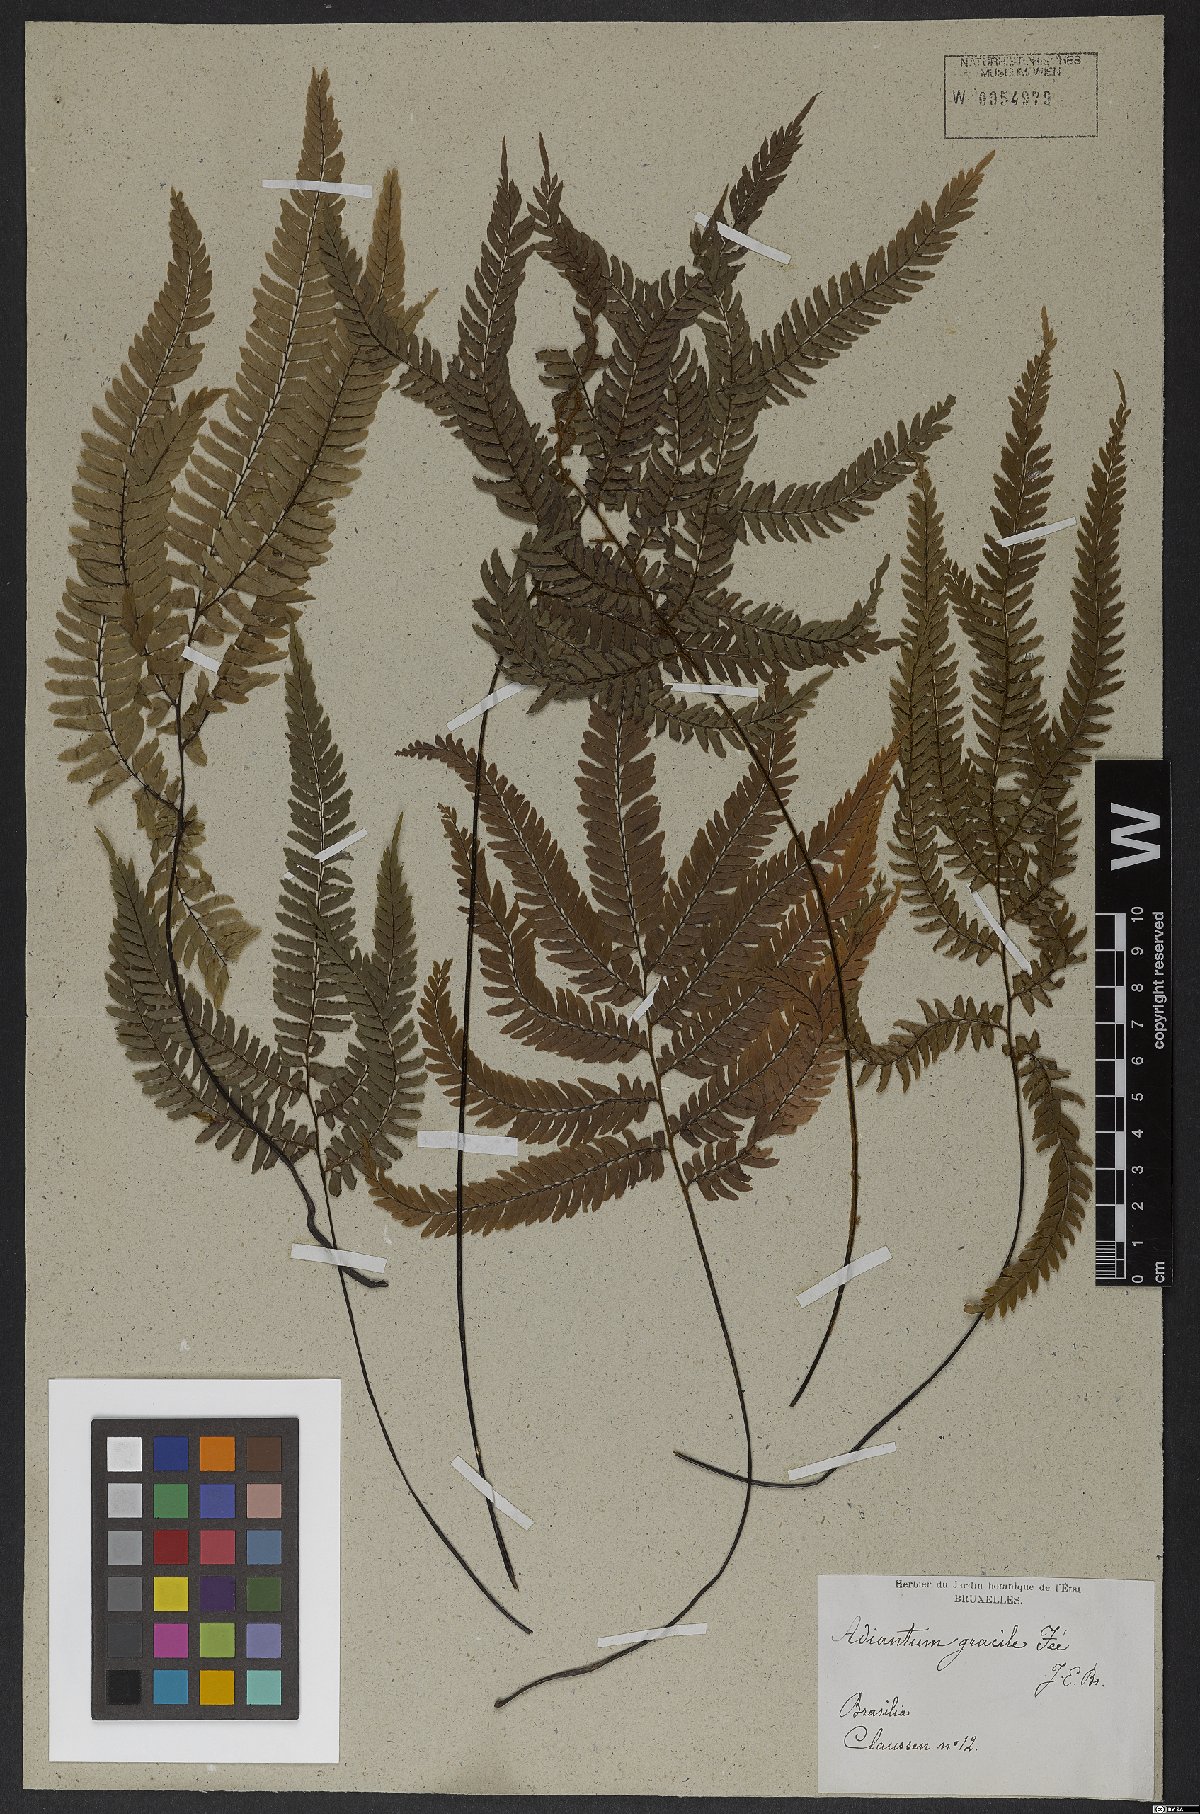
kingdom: Plantae
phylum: Tracheophyta
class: Polypodiopsida
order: Polypodiales
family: Pteridaceae
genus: Adiantum
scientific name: Adiantum gracile
